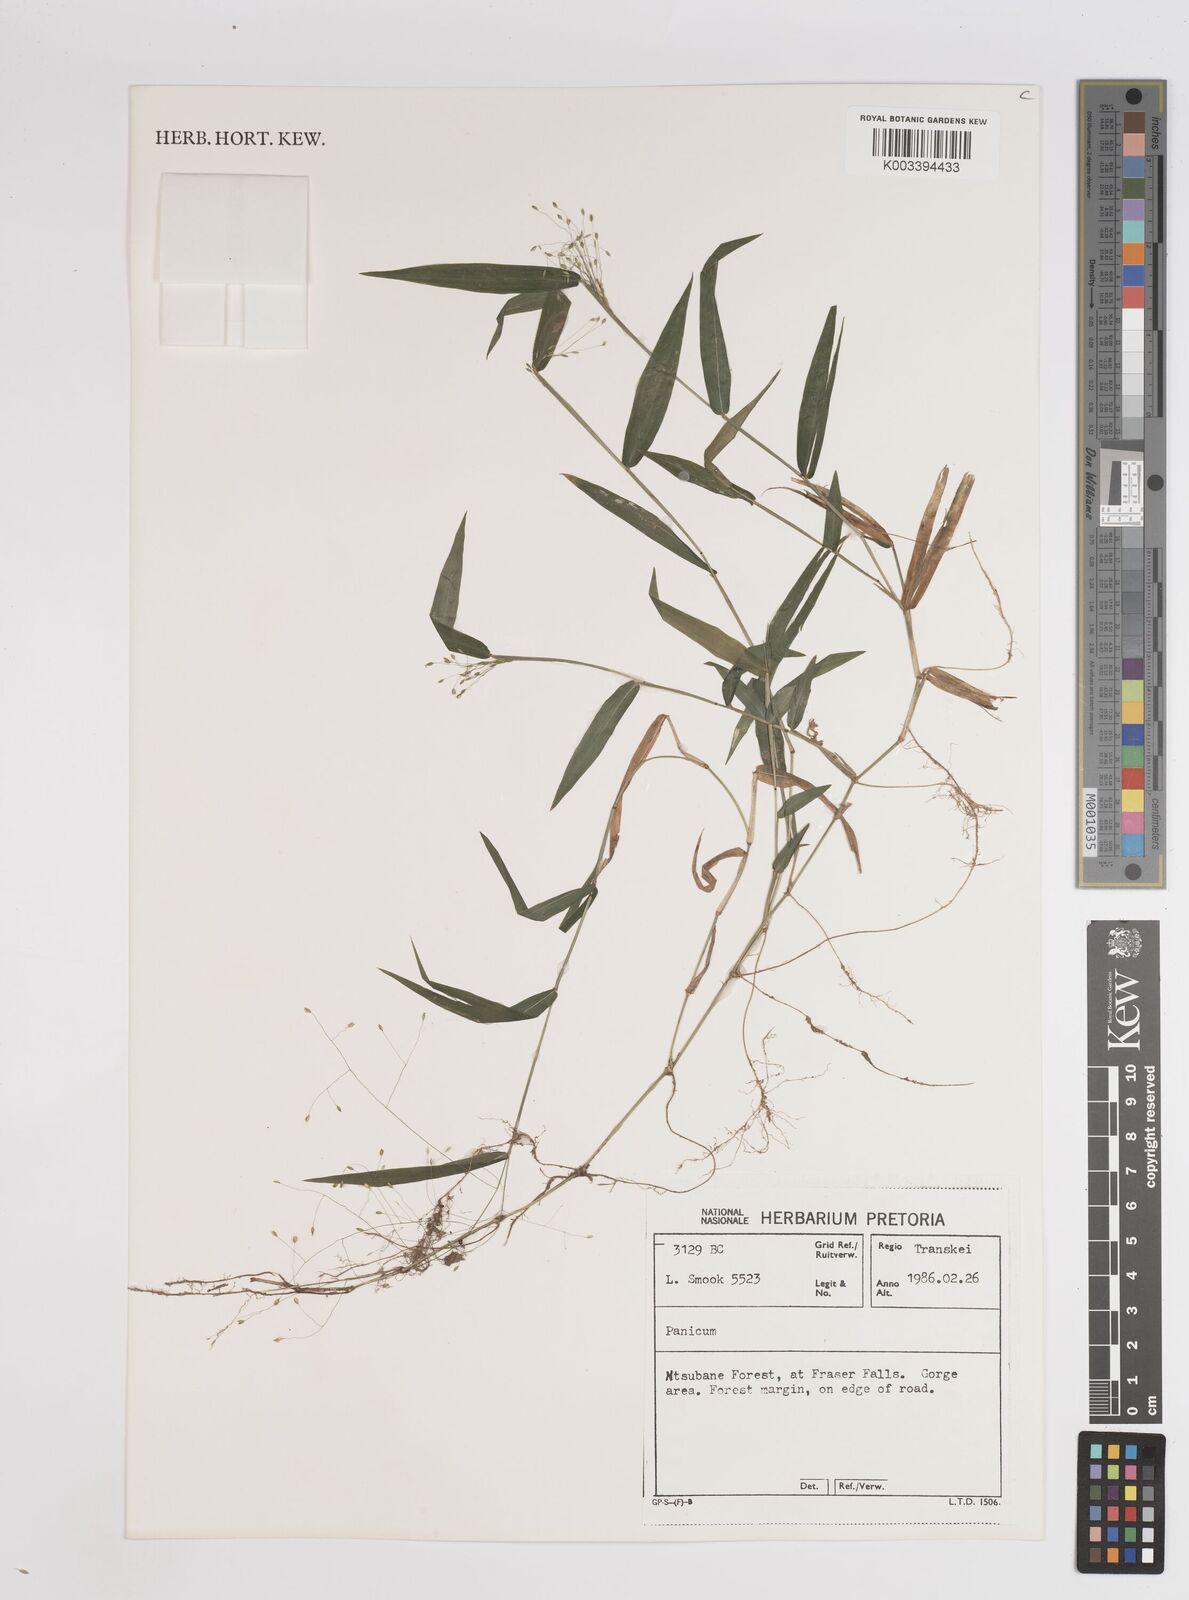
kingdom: Plantae
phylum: Tracheophyta
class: Liliopsida
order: Poales
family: Poaceae
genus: Panicum
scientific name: Panicum
